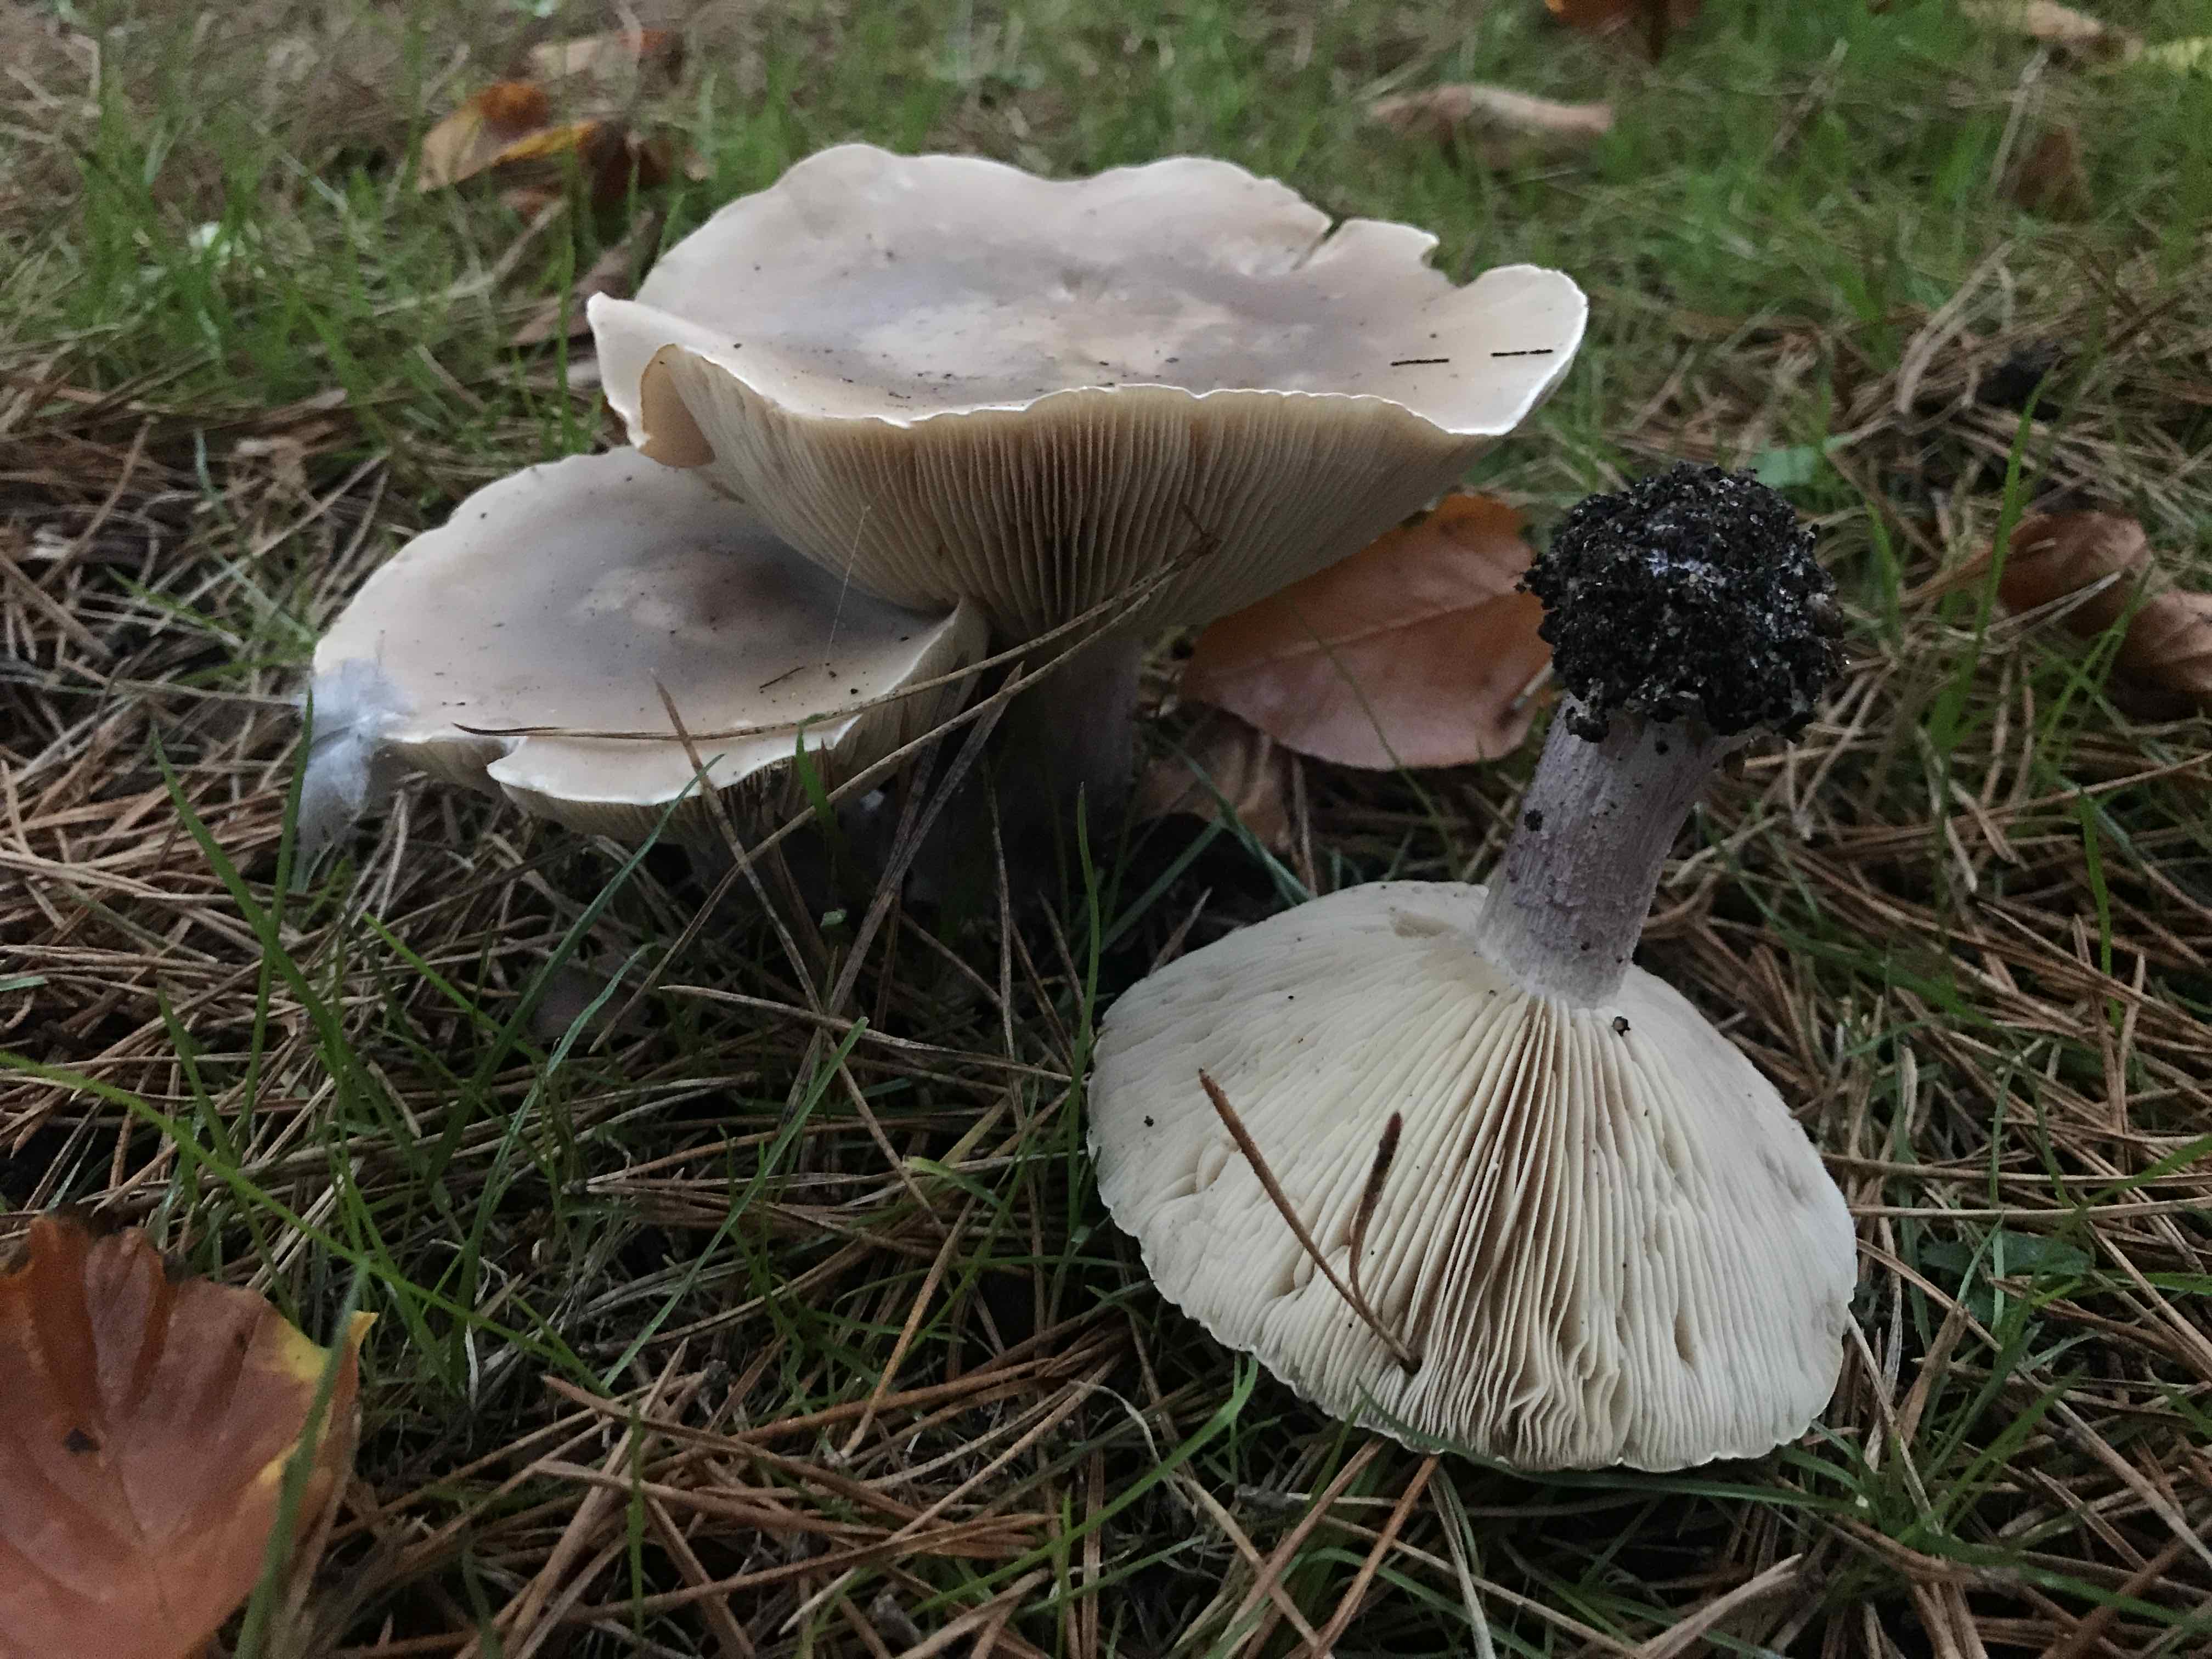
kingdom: Fungi
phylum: Basidiomycota
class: Agaricomycetes
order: Agaricales
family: Tricholomataceae
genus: Lepista
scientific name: Lepista personata
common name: bleg hekseringshat
